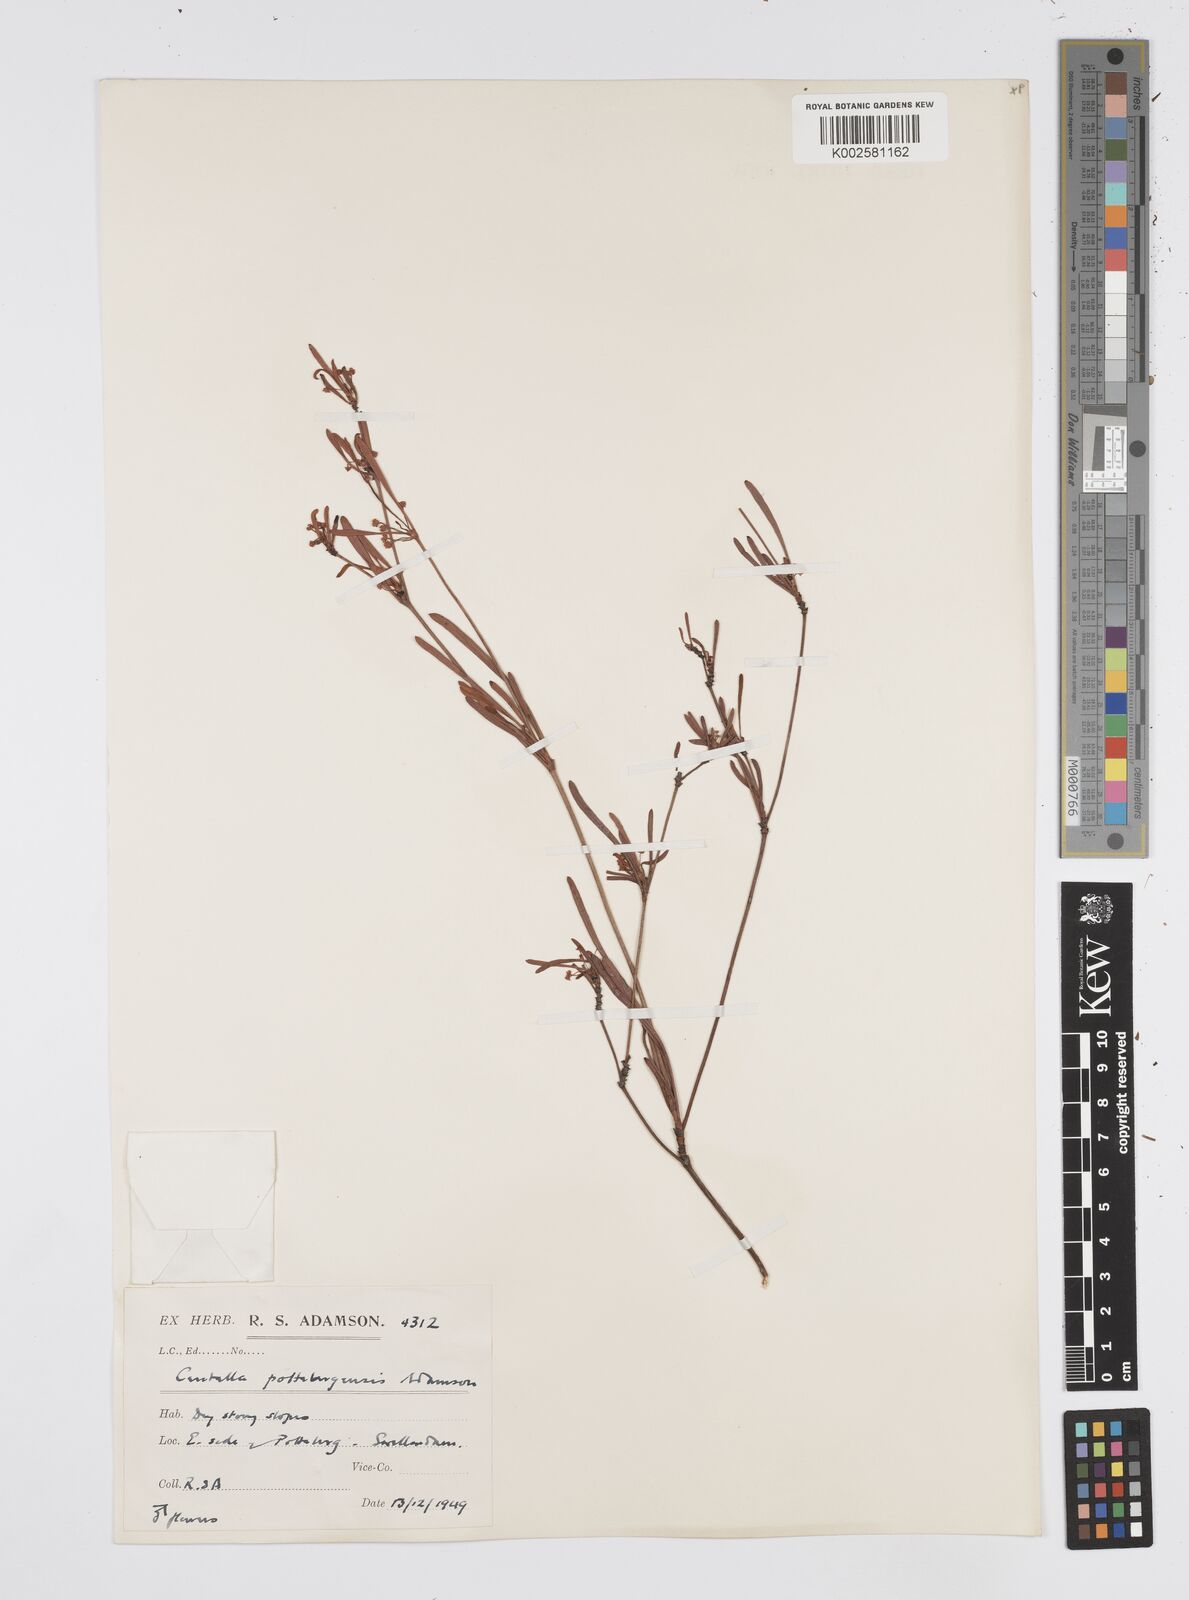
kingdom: Plantae
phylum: Tracheophyta
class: Magnoliopsida
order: Apiales
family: Apiaceae
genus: Centella
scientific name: Centella pottebergensis
